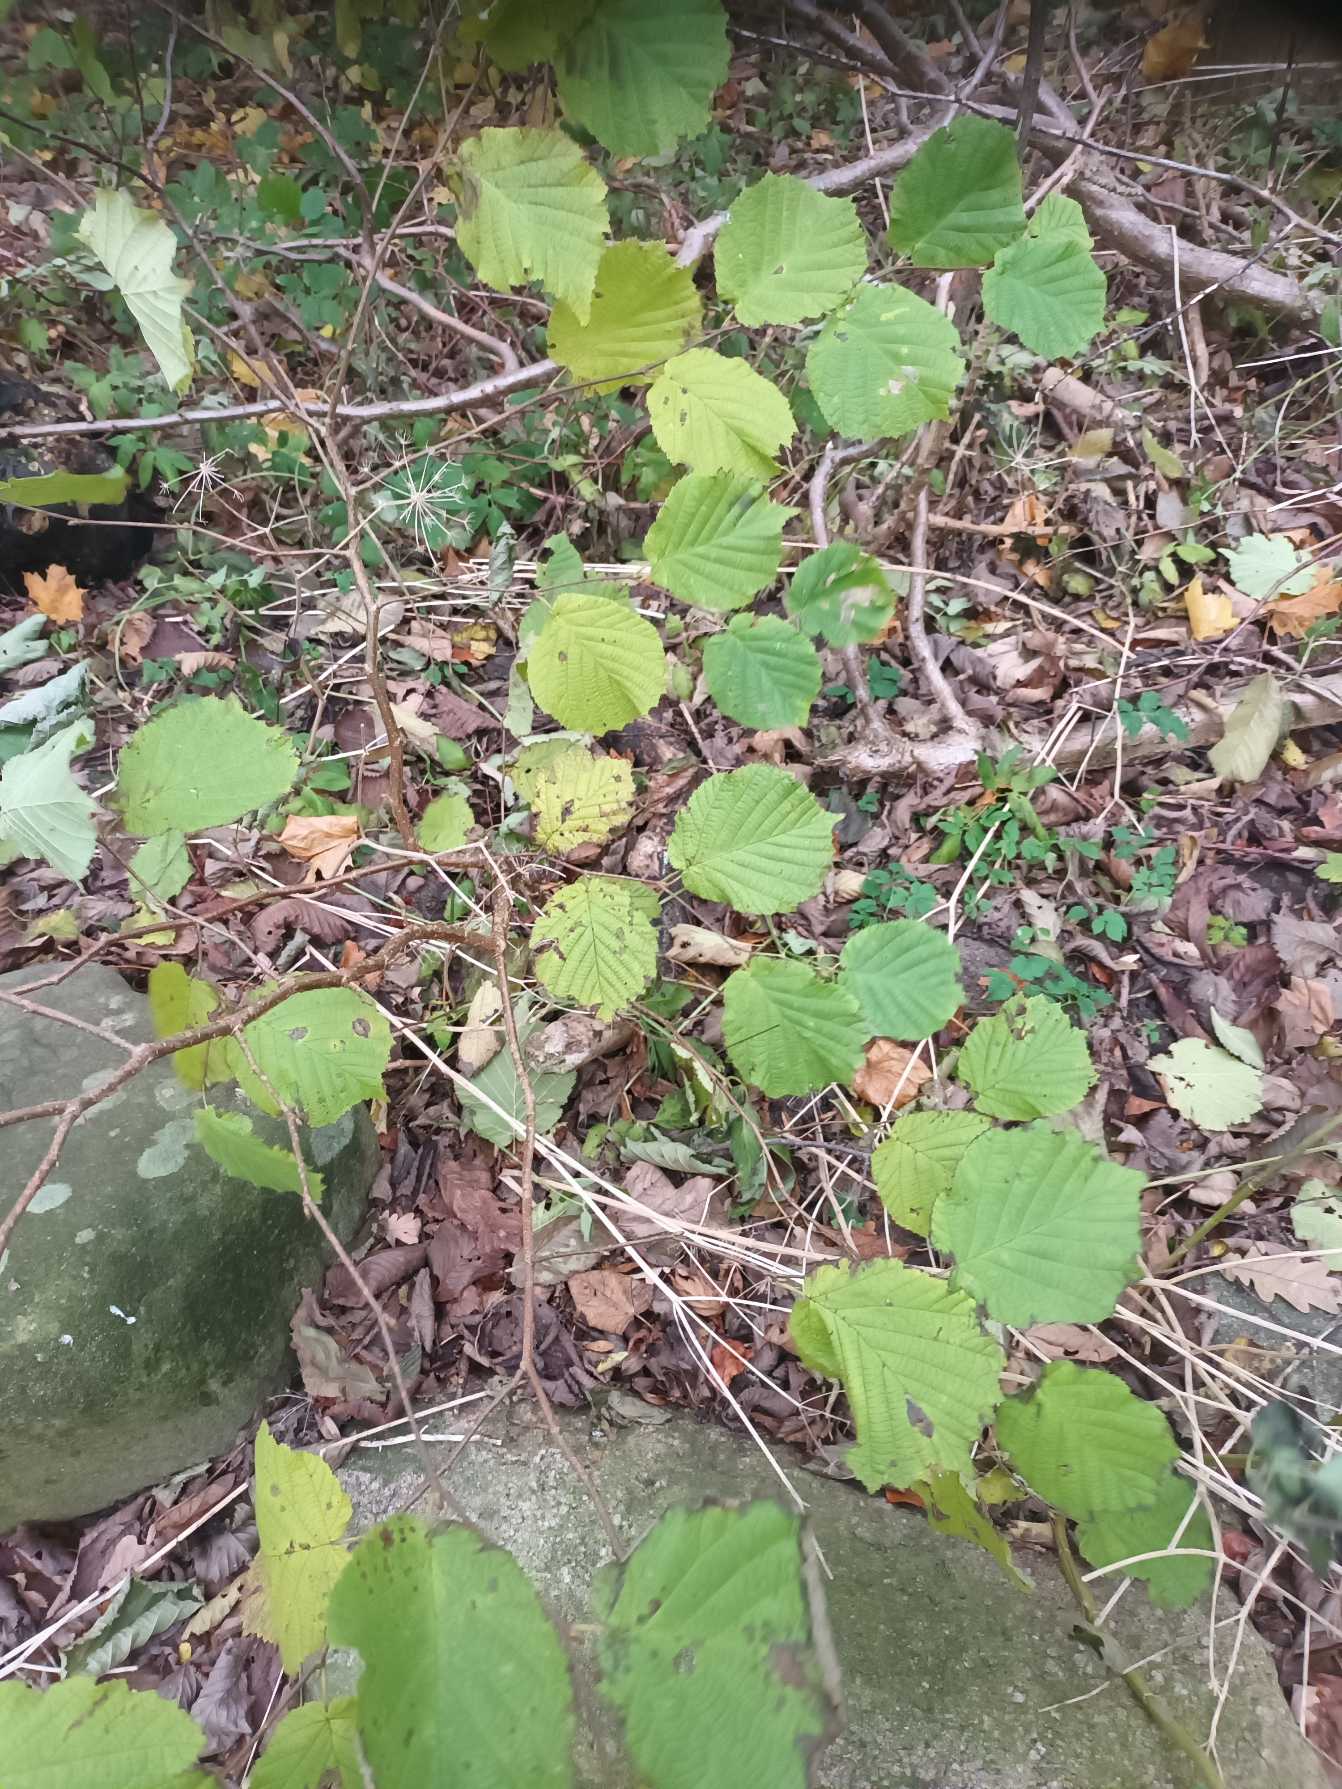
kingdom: Plantae
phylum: Tracheophyta
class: Magnoliopsida
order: Fagales
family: Betulaceae
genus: Corylus
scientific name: Corylus avellana
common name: Hassel
